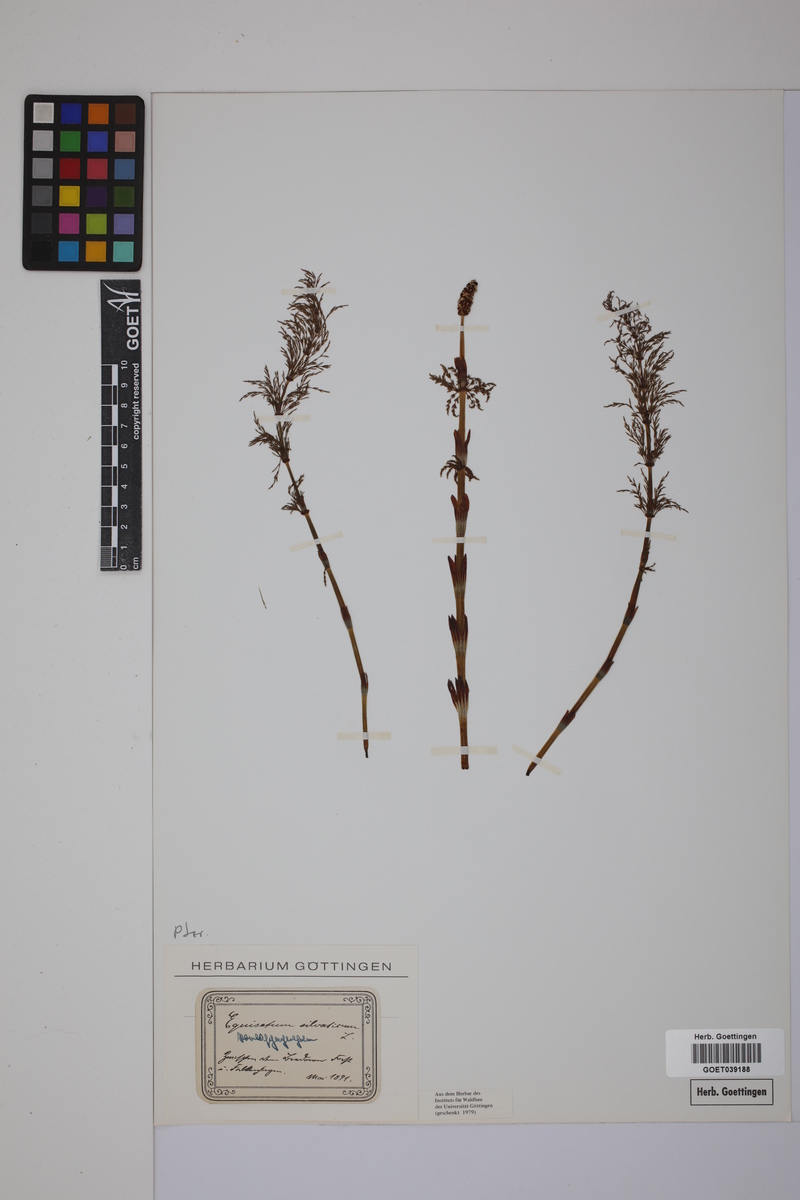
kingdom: Plantae
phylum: Tracheophyta
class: Polypodiopsida
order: Equisetales
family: Equisetaceae
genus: Equisetum
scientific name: Equisetum sylvaticum
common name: Wood horsetail
